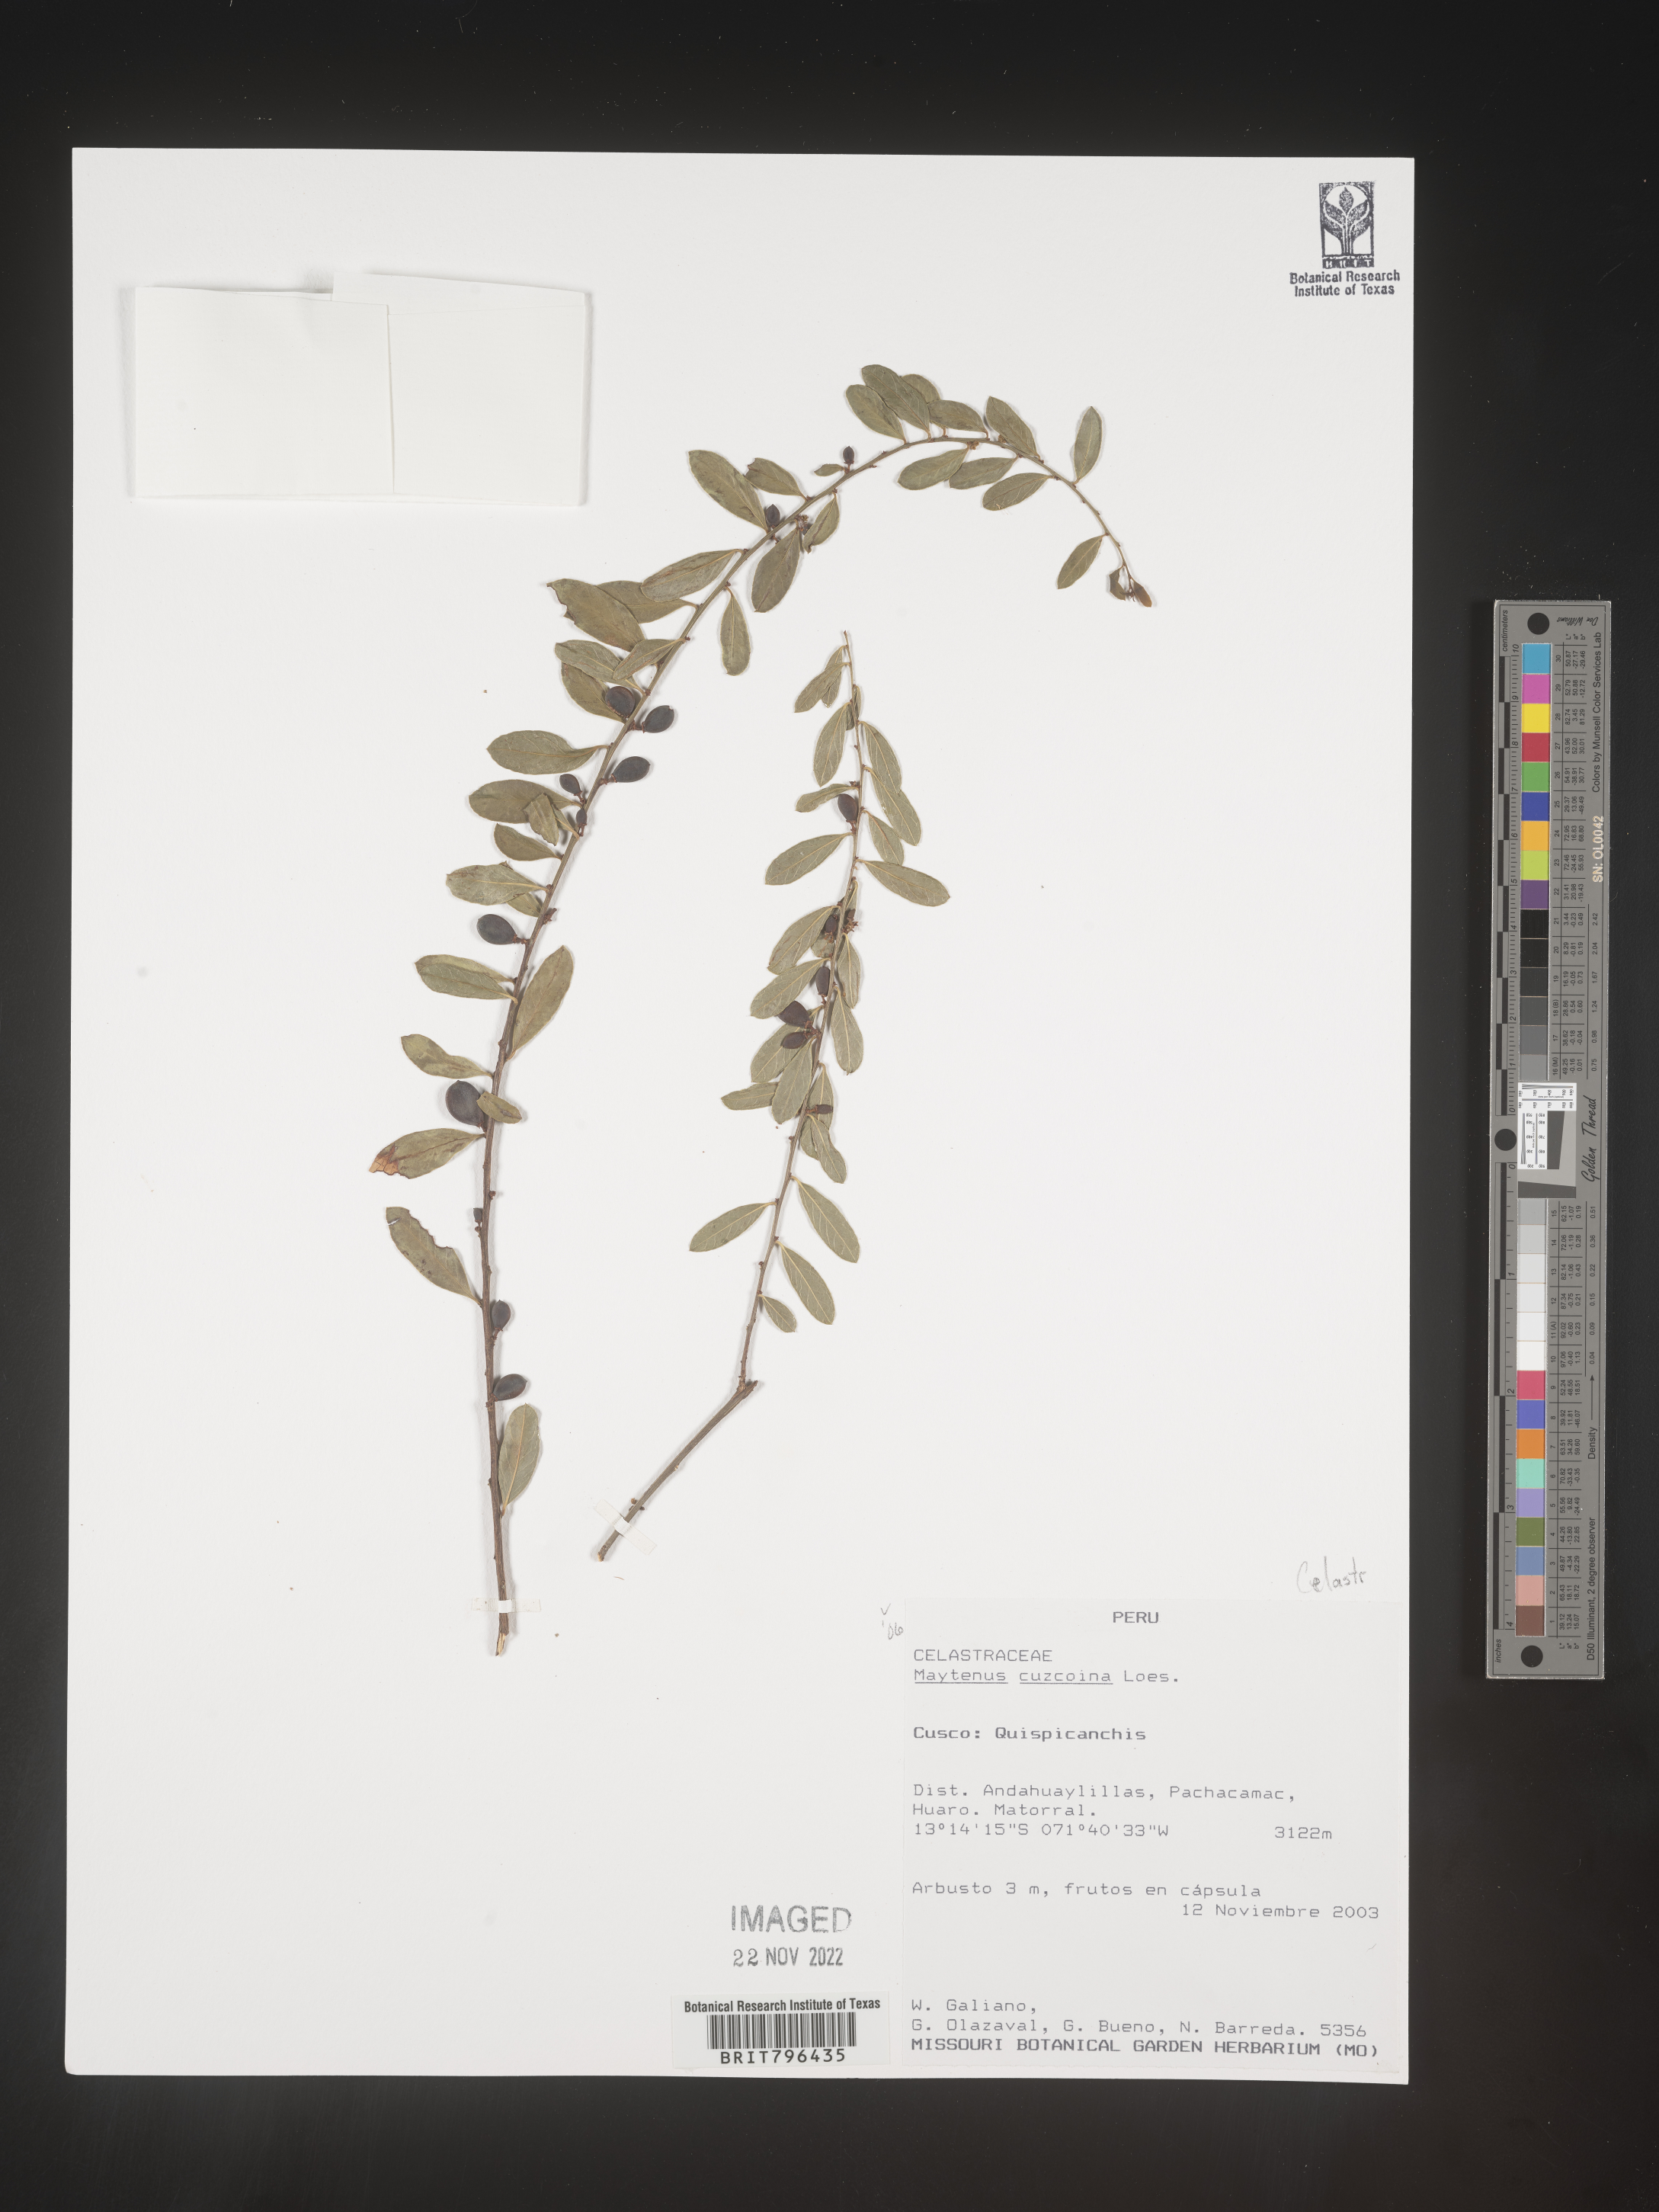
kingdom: Plantae
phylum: Tracheophyta
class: Magnoliopsida
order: Celastrales
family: Celastraceae
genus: Maytenus
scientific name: Maytenus
